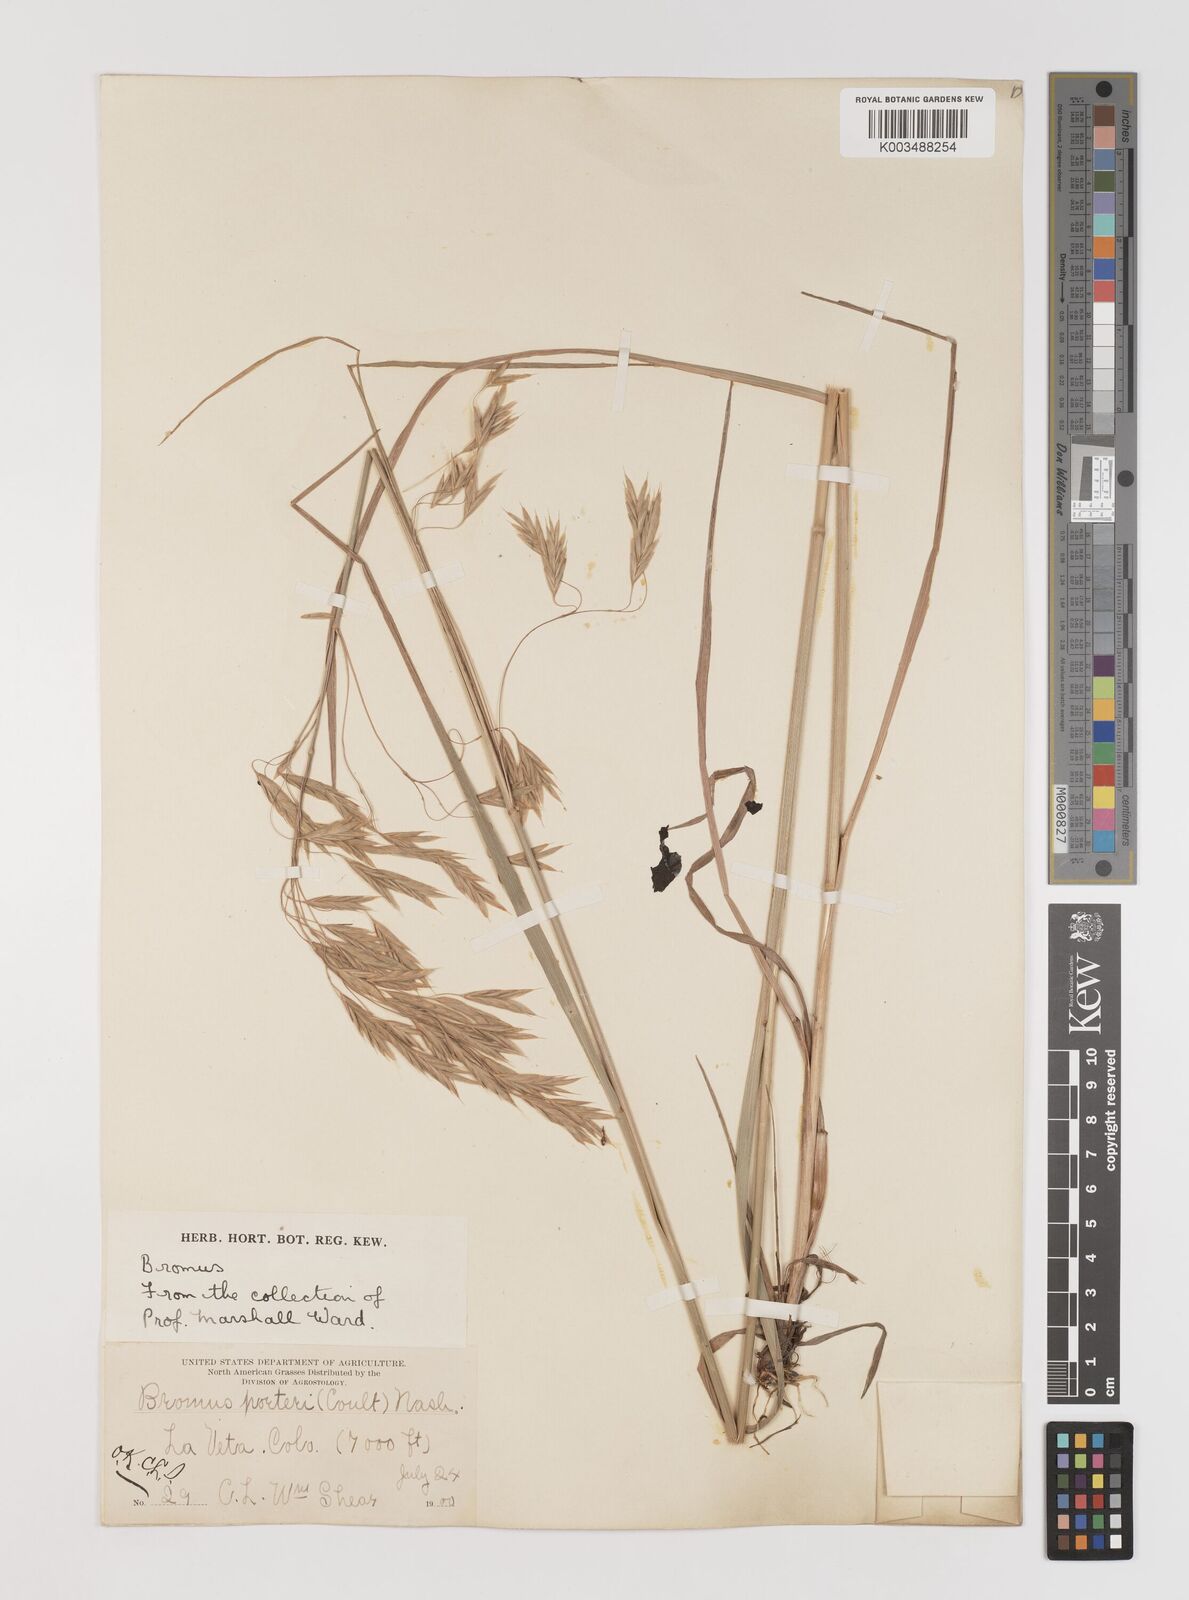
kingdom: Plantae
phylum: Tracheophyta
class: Liliopsida
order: Poales
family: Poaceae
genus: Bromus
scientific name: Bromus porteri
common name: Nodding brome
